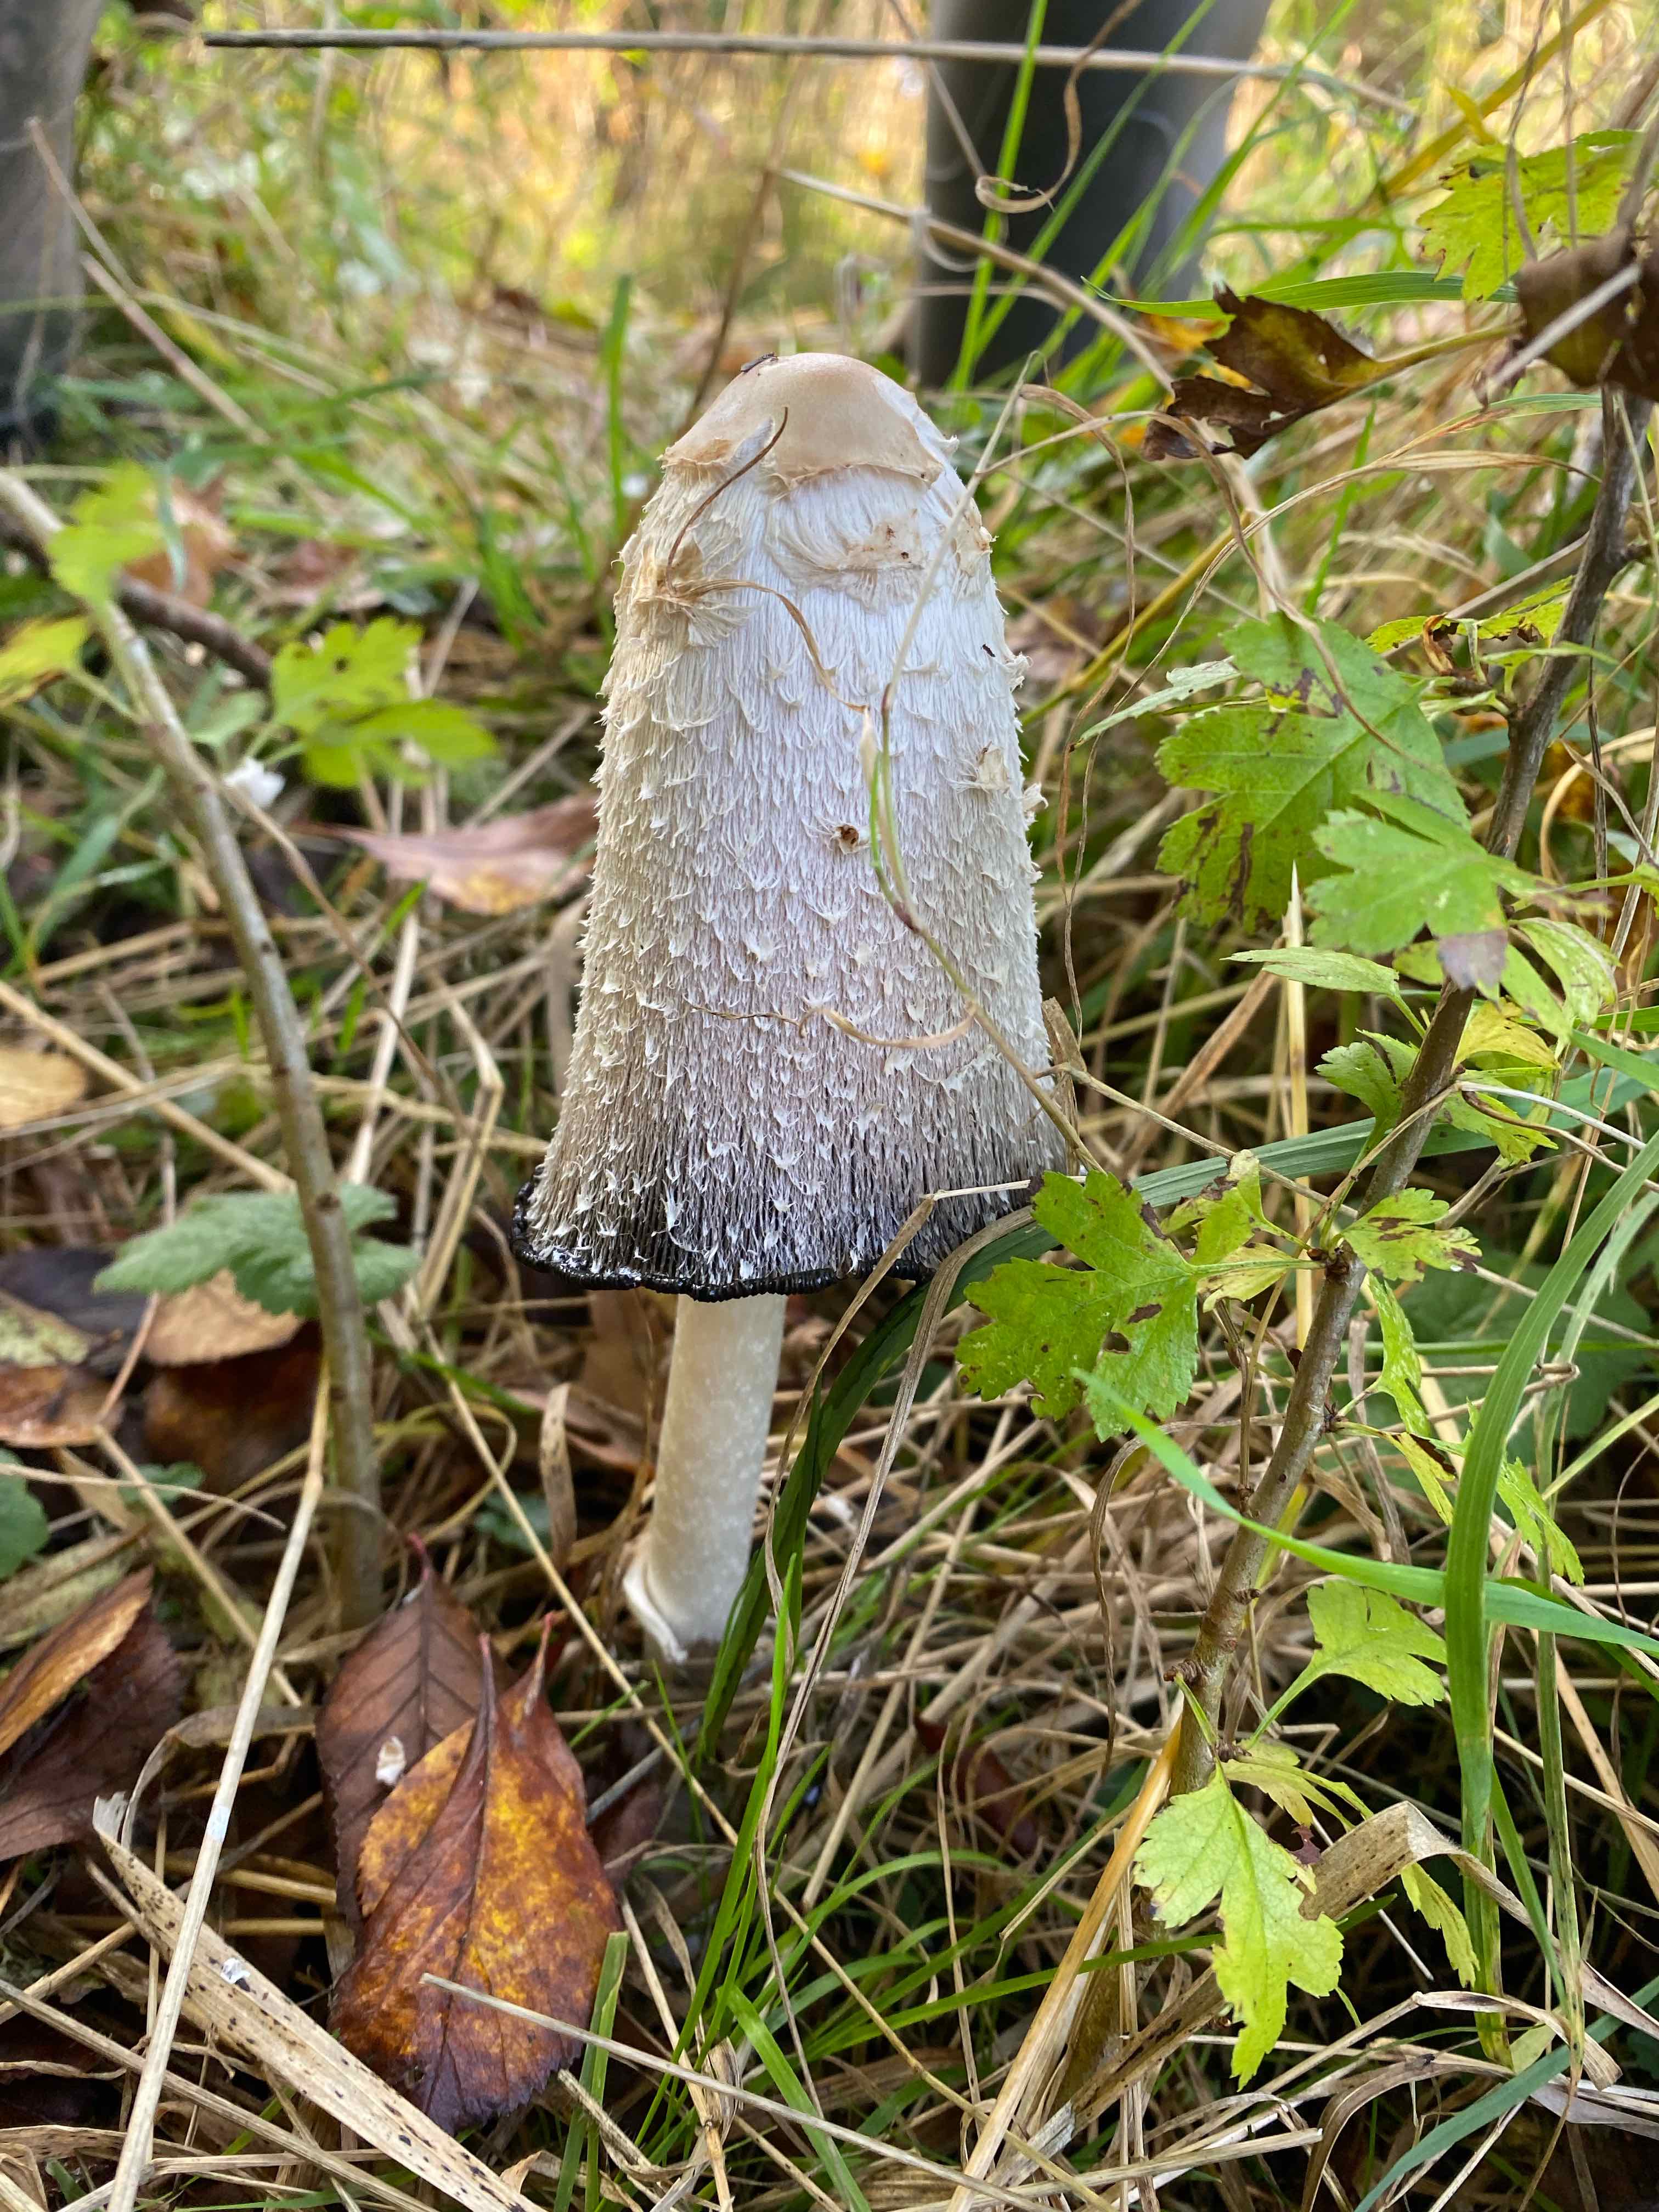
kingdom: Fungi
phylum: Basidiomycota
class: Agaricomycetes
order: Agaricales
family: Agaricaceae
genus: Coprinus
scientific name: Coprinus comatus
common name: stor parykhat
